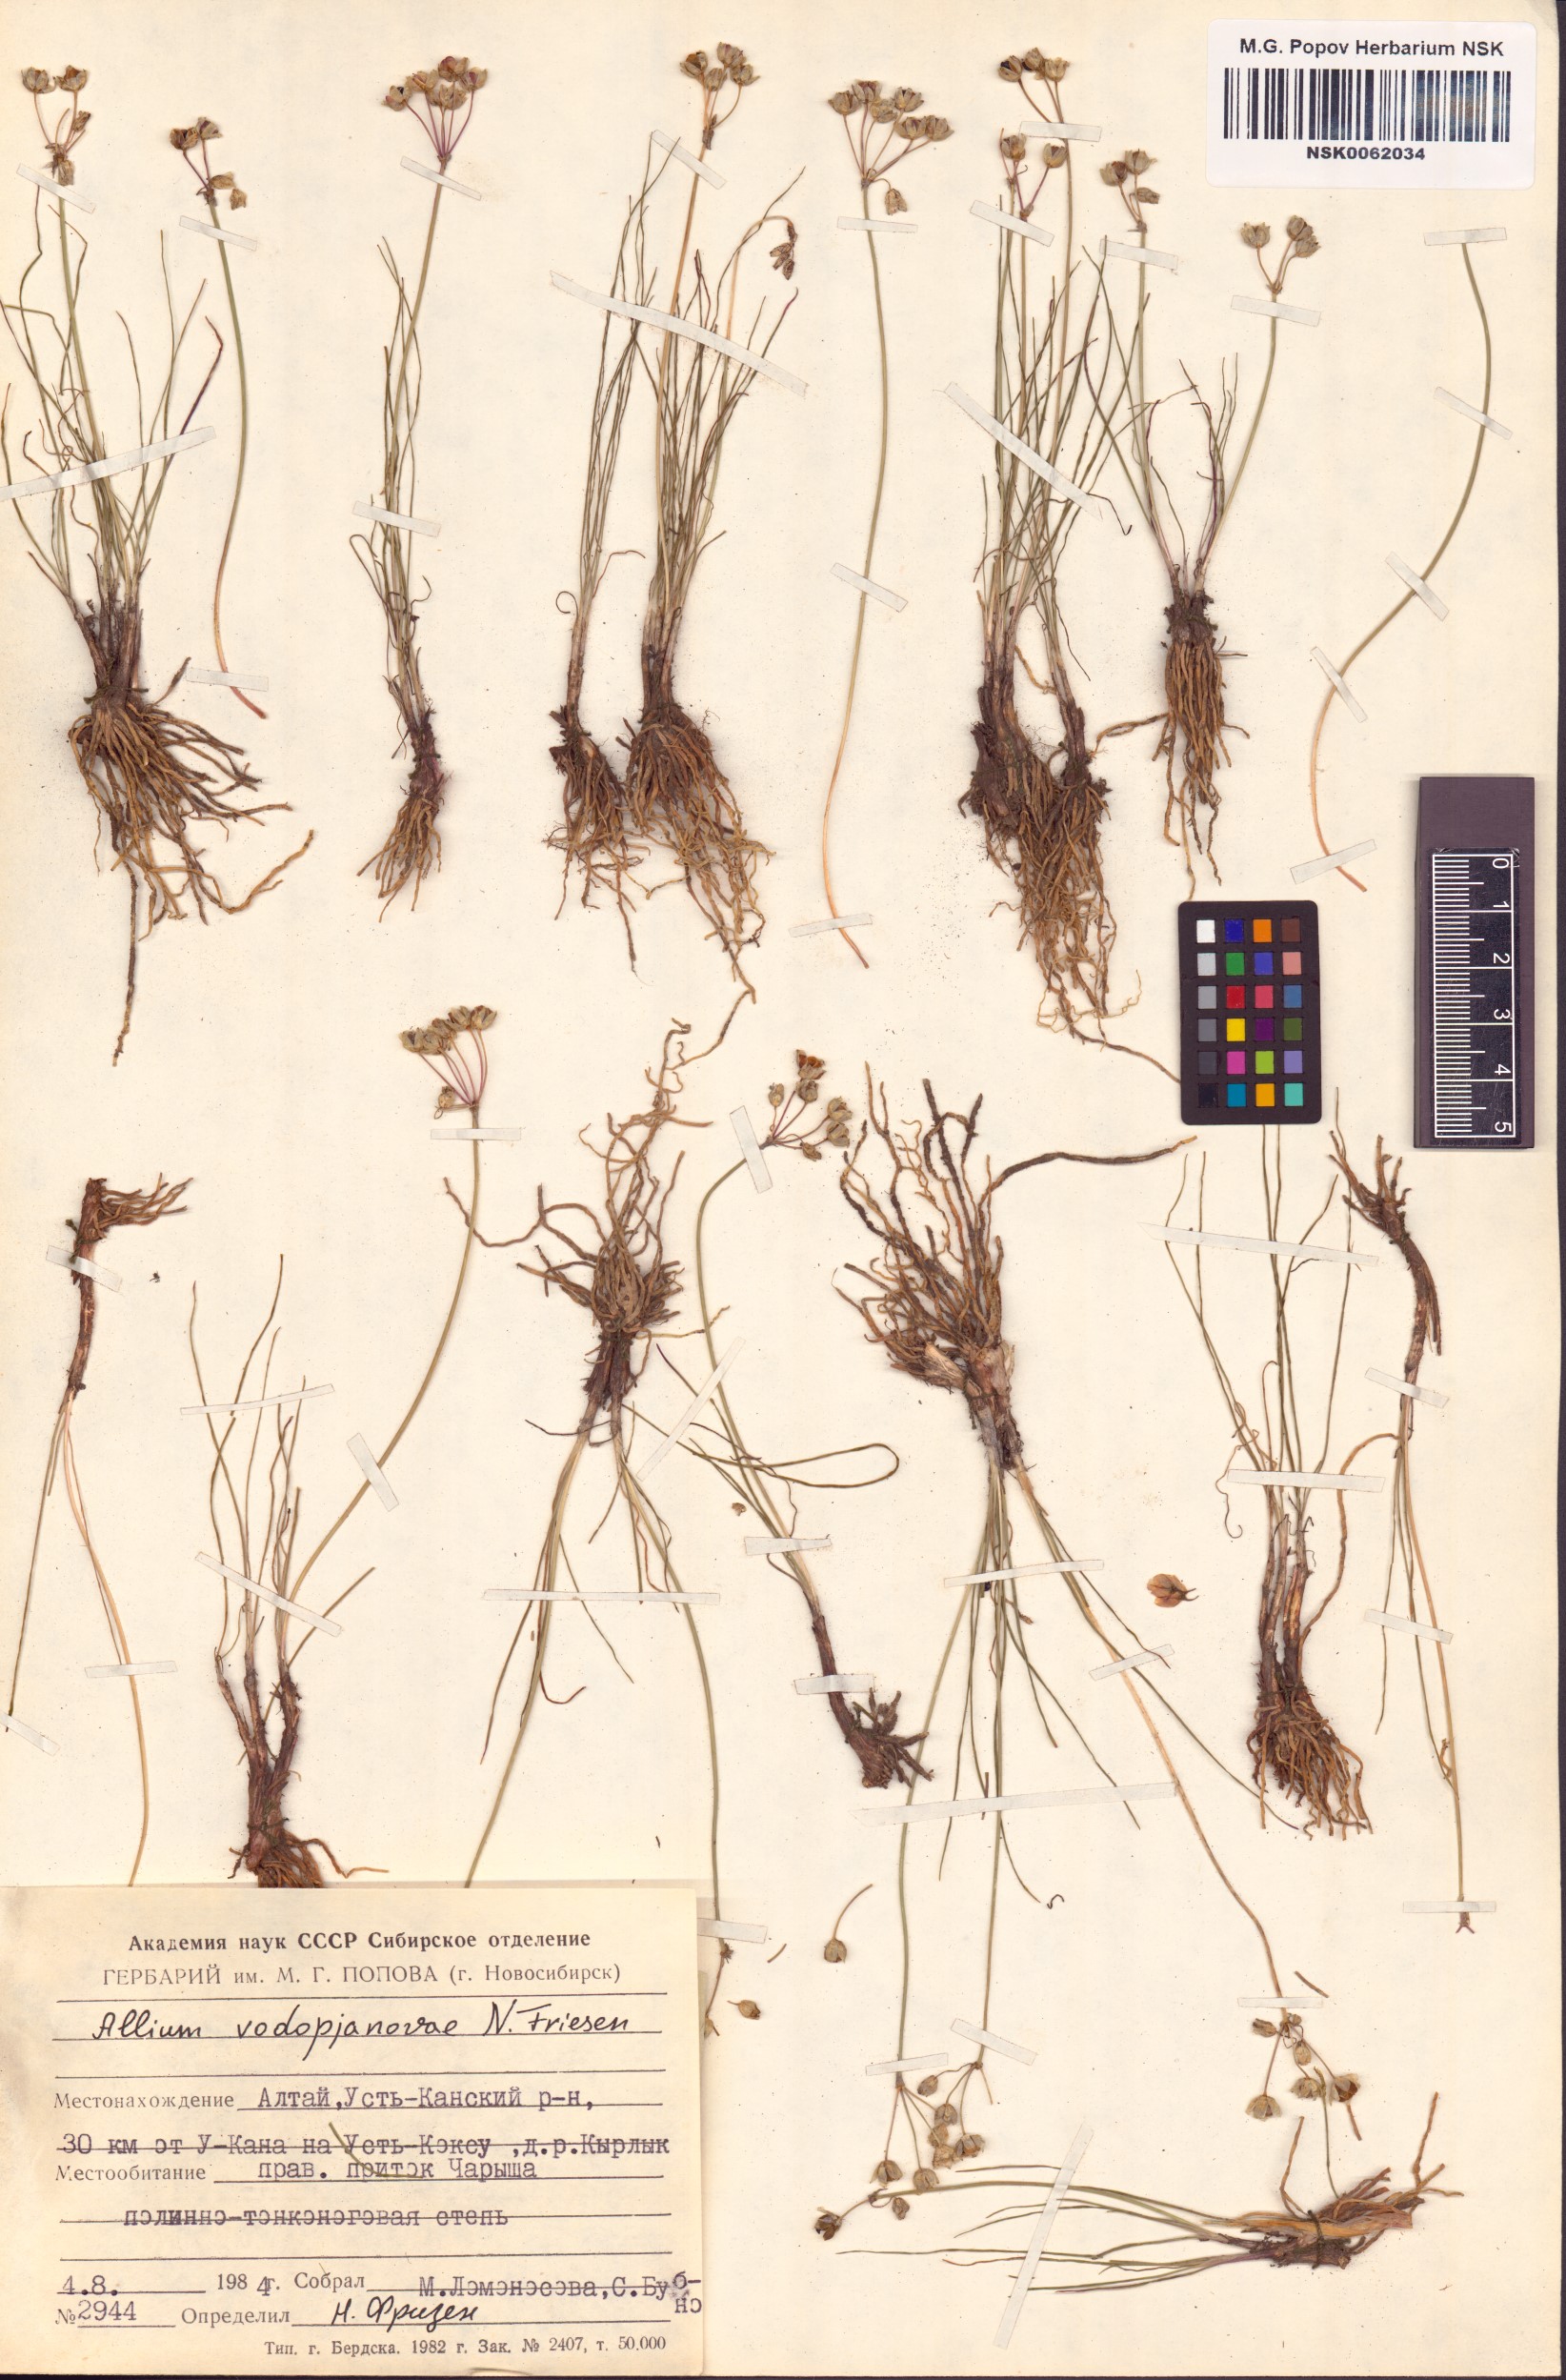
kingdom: Plantae
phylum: Tracheophyta
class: Liliopsida
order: Asparagales
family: Amaryllidaceae
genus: Allium
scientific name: Allium vodopjanovae
